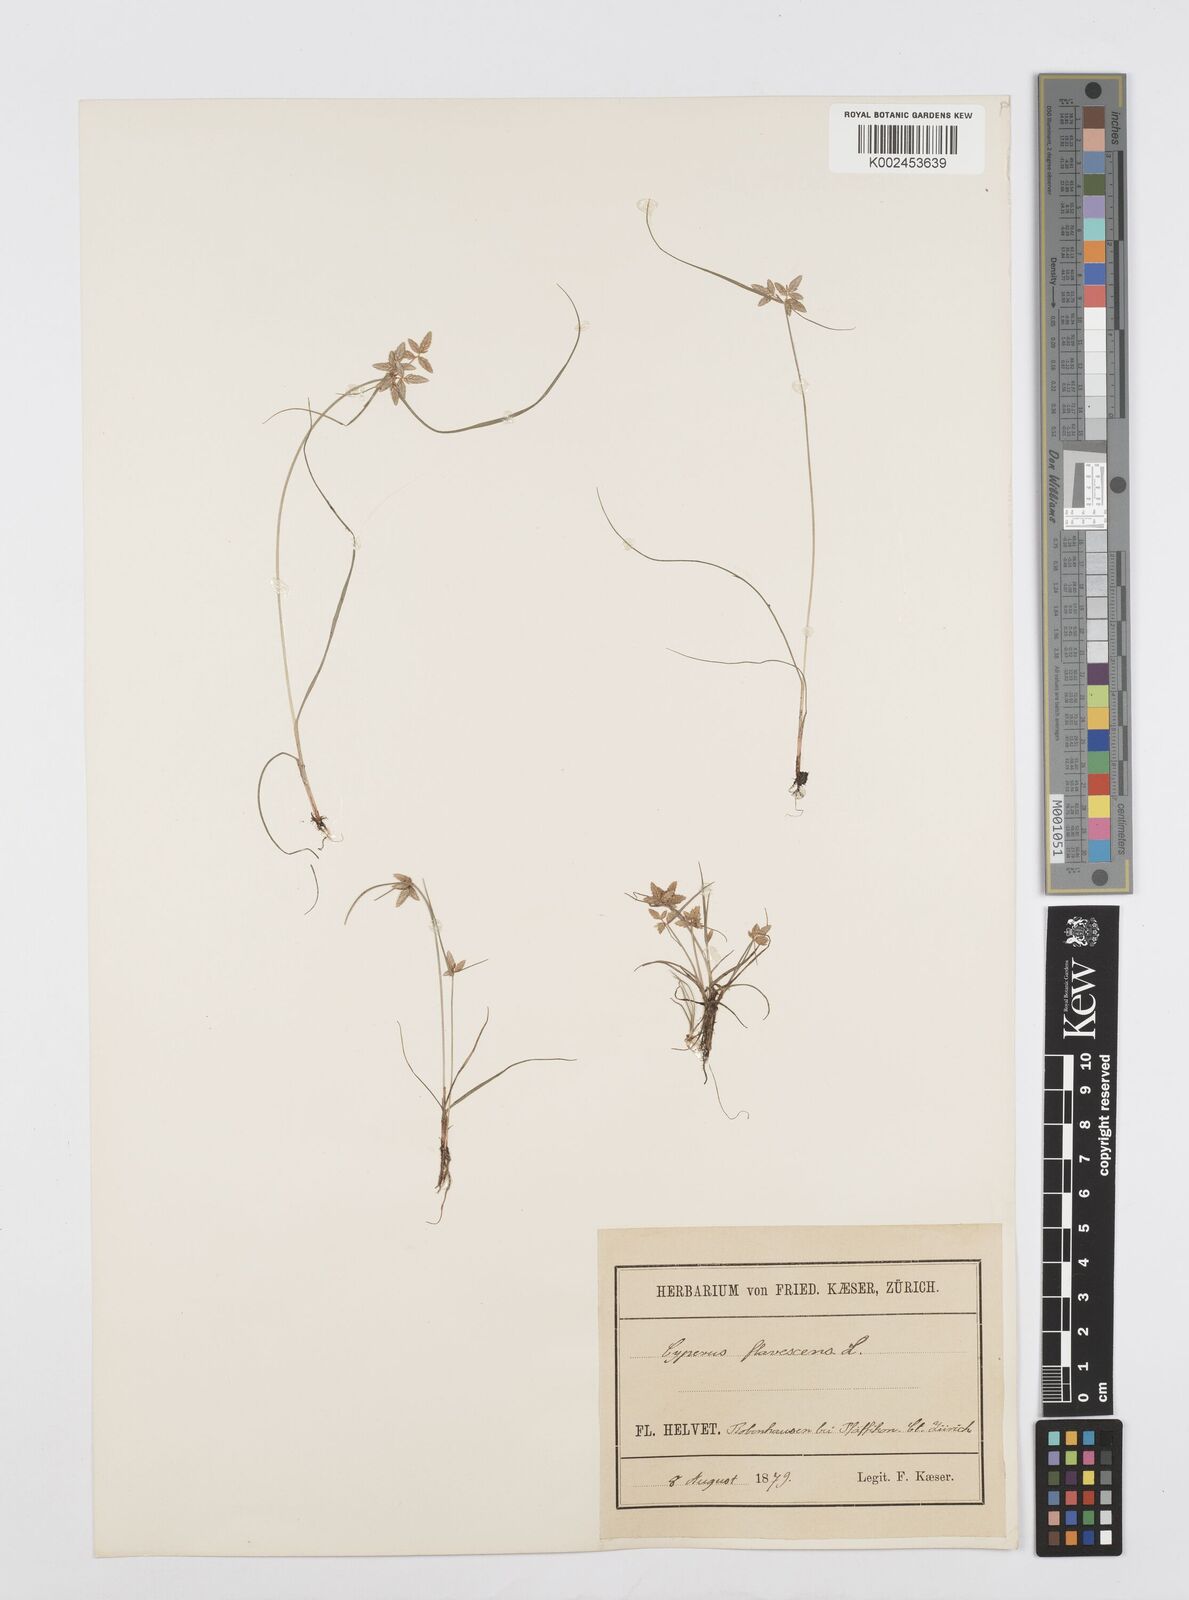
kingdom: Plantae
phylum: Tracheophyta
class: Liliopsida
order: Poales
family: Cyperaceae
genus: Cyperus
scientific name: Cyperus flavescens
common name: Yellow galingale
